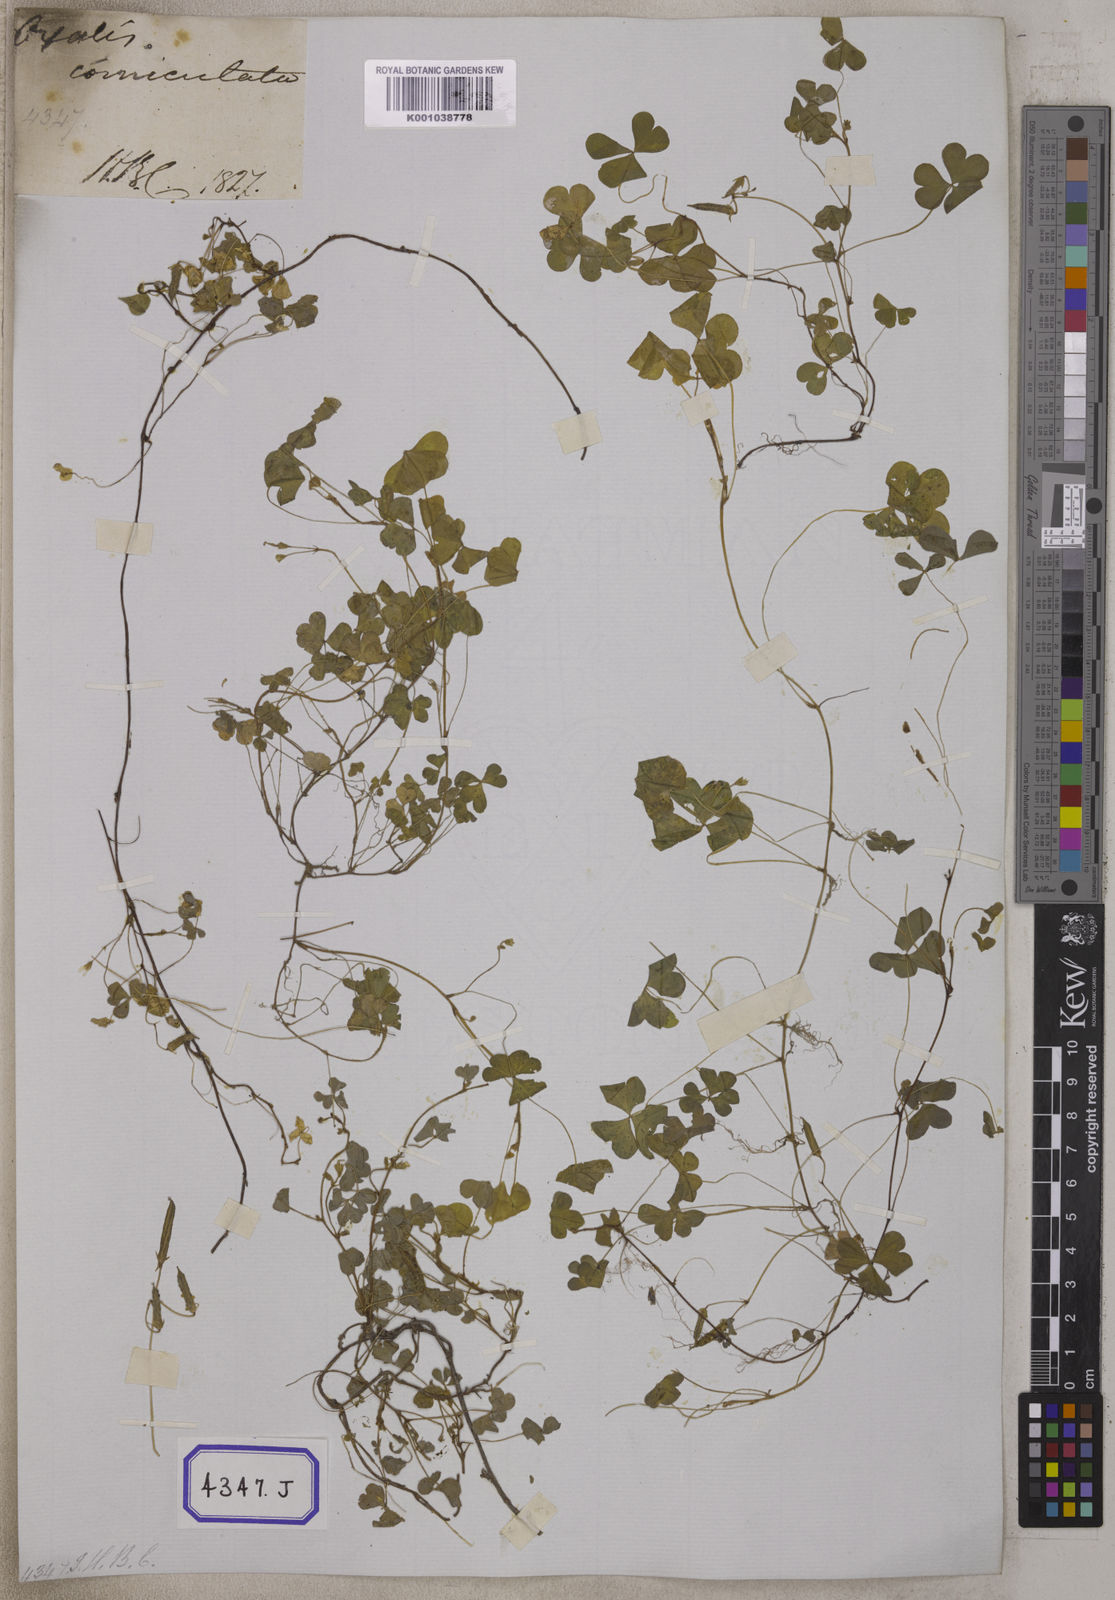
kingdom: Plantae
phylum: Tracheophyta
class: Magnoliopsida
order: Oxalidales
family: Oxalidaceae
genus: Oxalis
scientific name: Oxalis corniculata
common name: Procumbent yellow-sorrel
